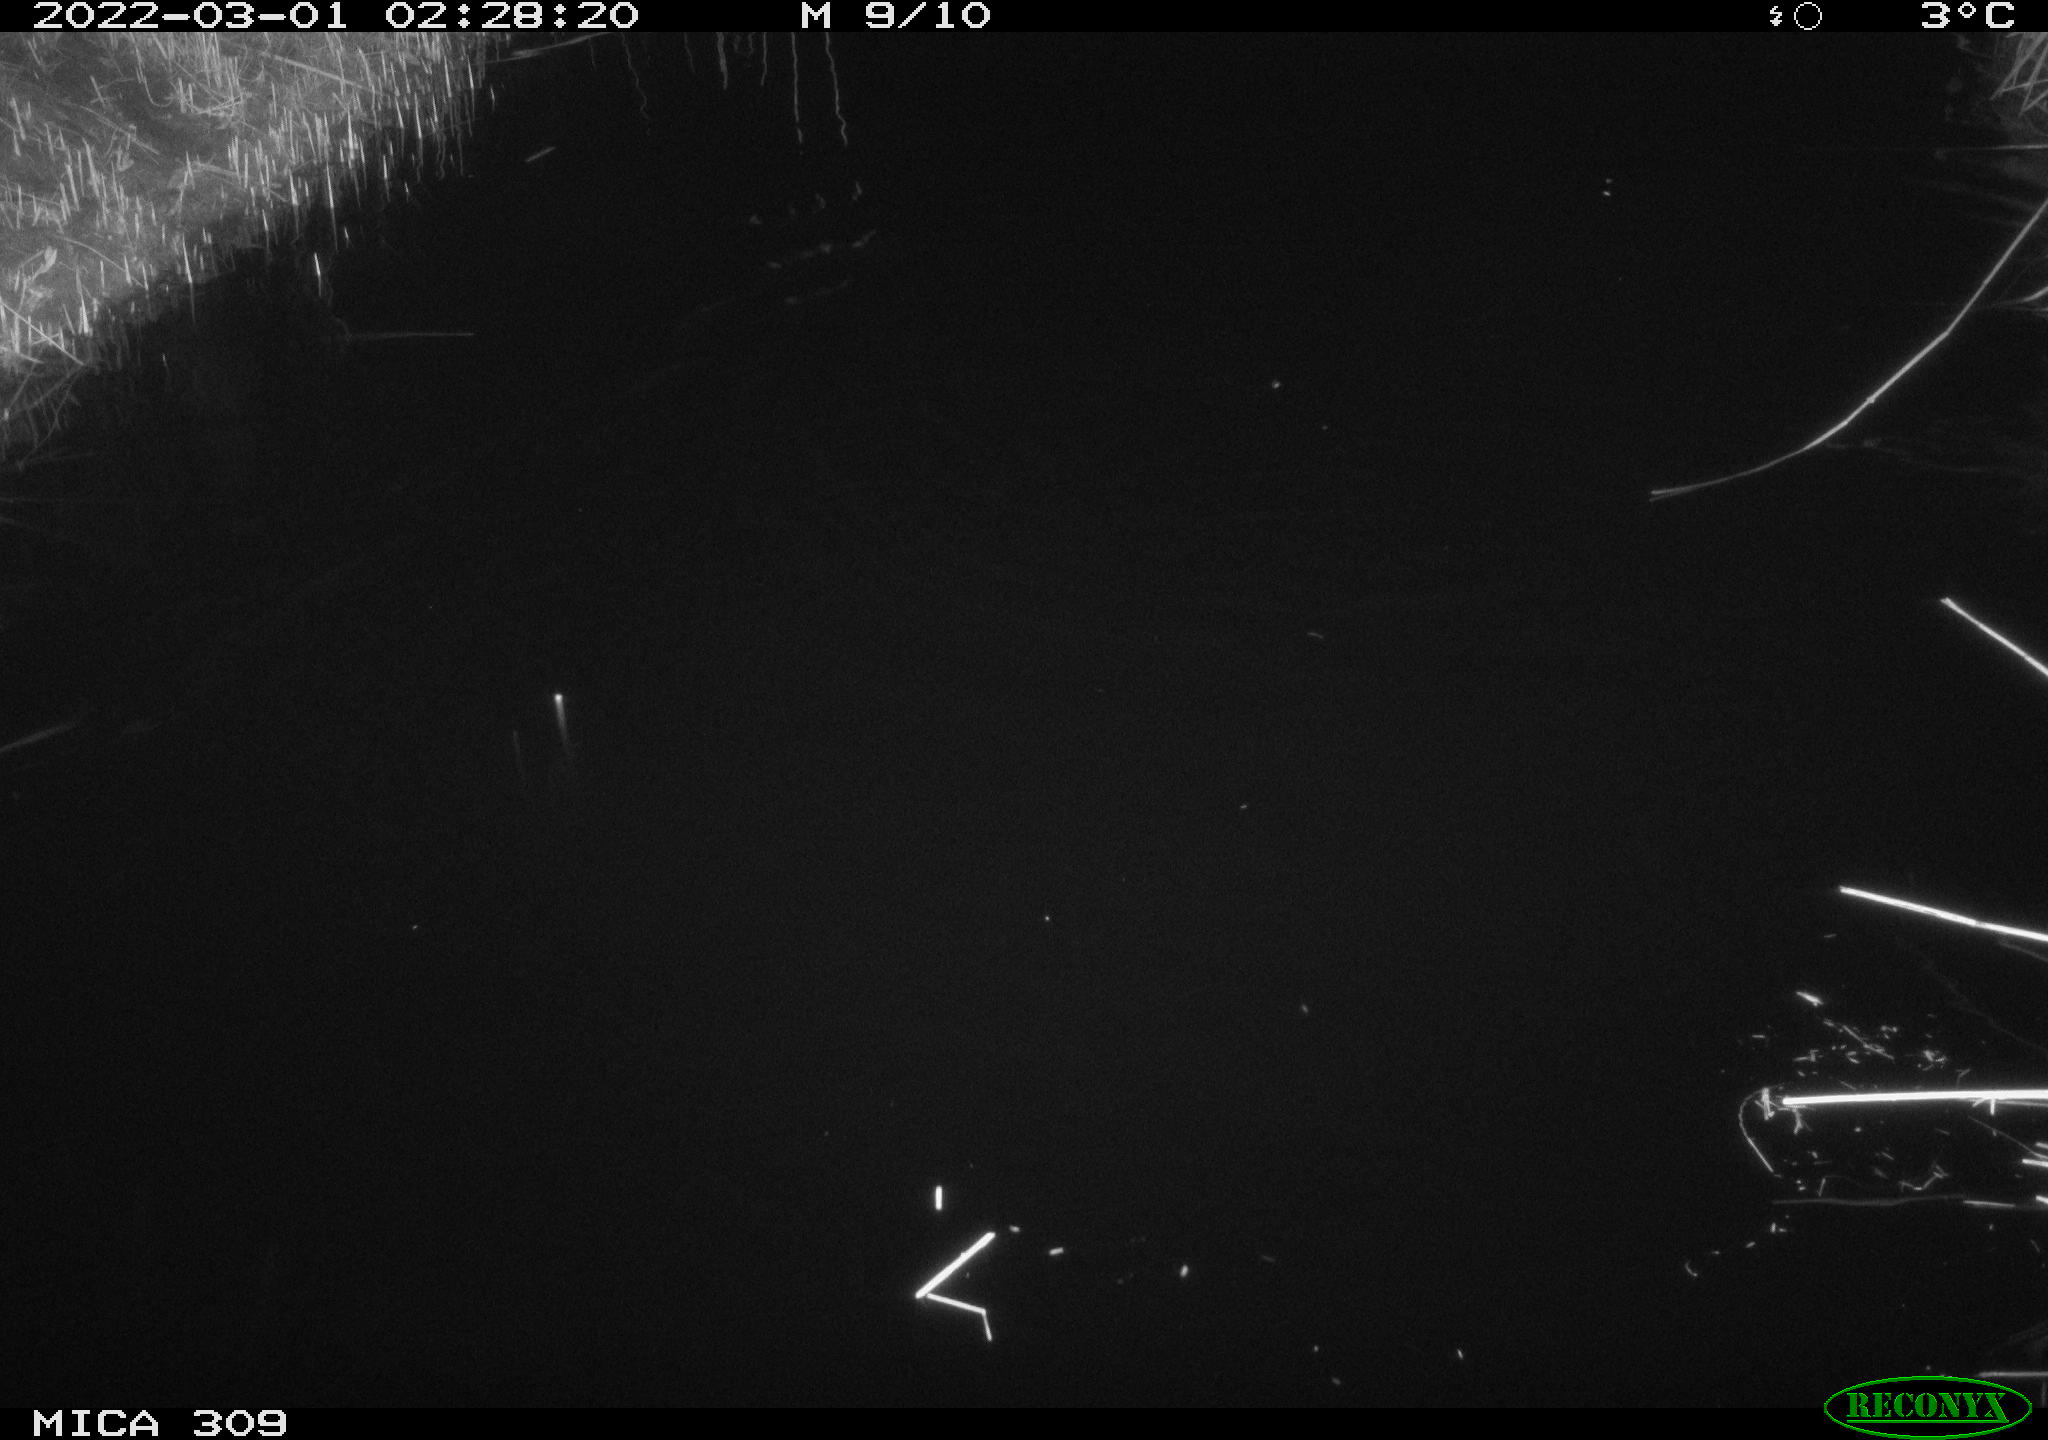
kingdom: Animalia
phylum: Chordata
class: Mammalia
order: Rodentia
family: Cricetidae
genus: Ondatra
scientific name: Ondatra zibethicus
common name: Muskrat
